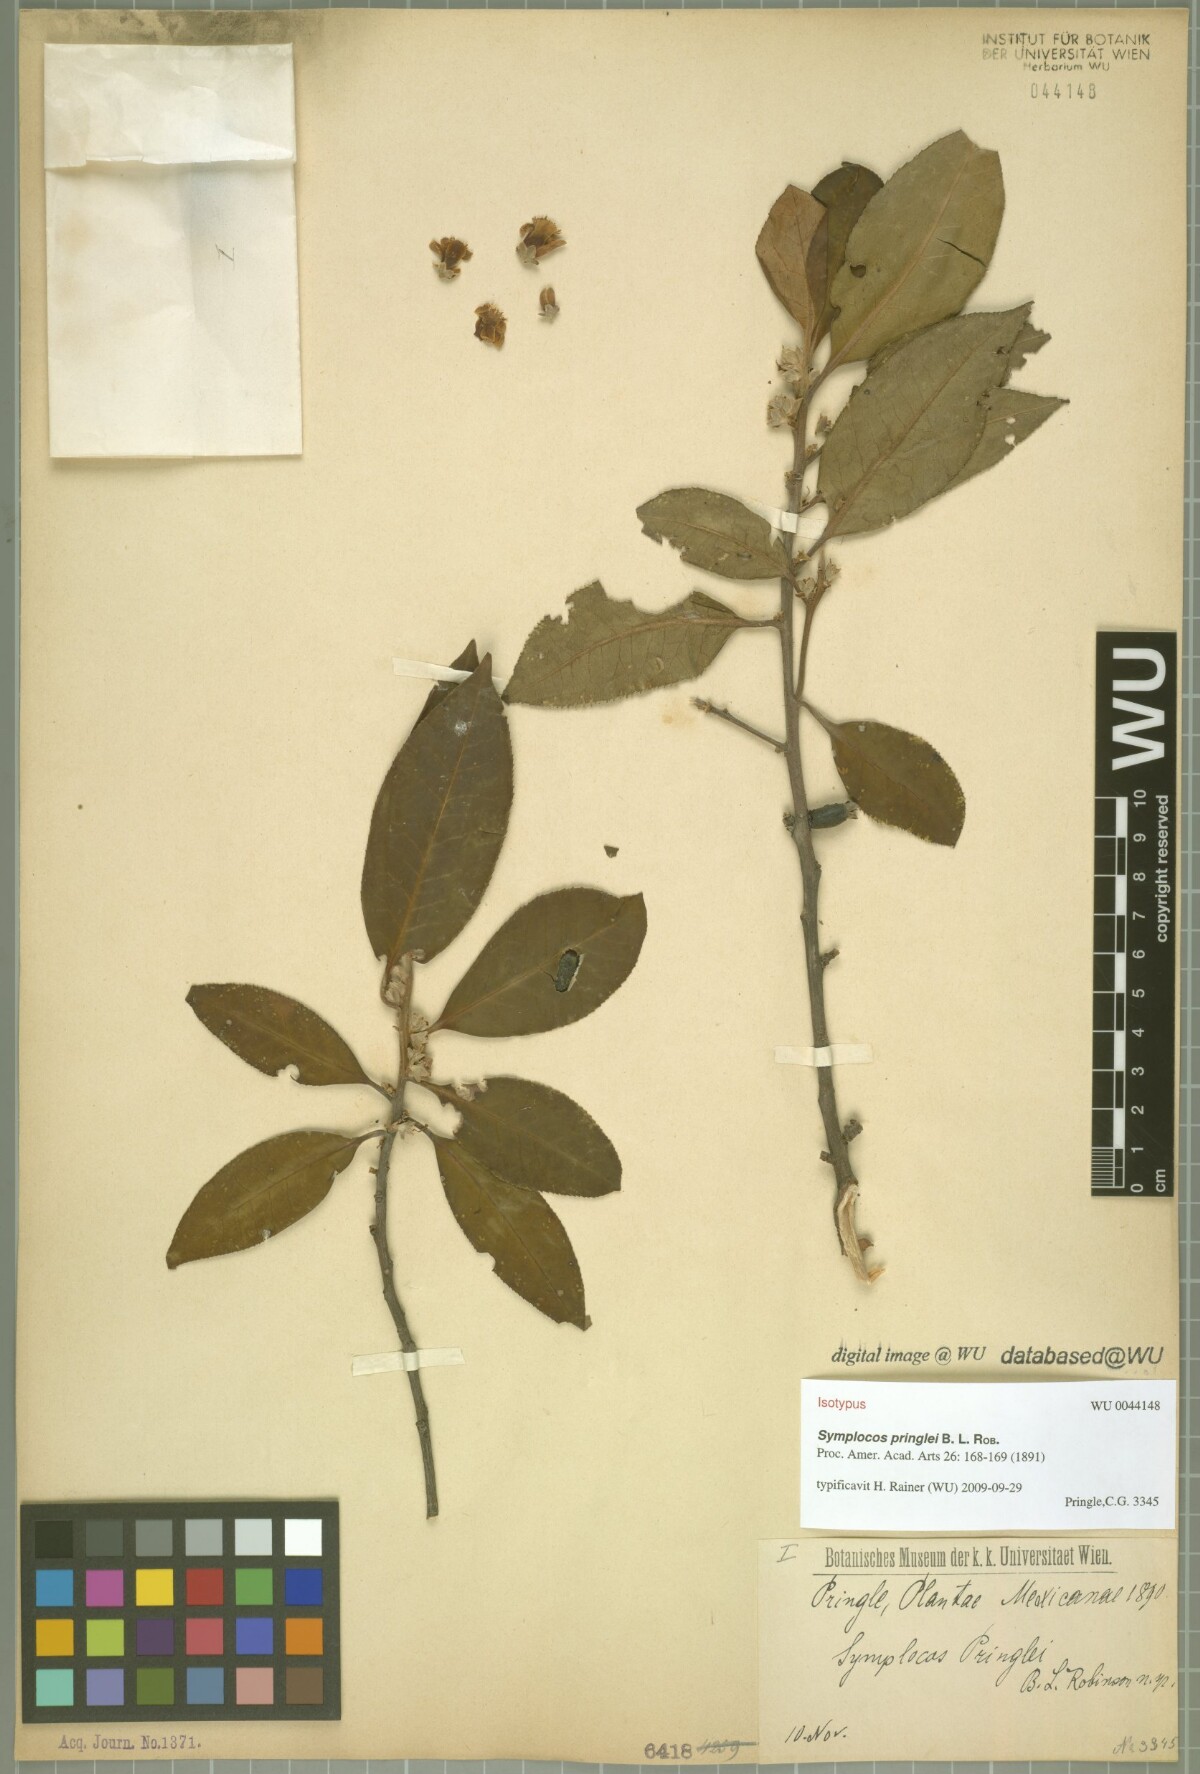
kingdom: Plantae
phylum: Tracheophyta
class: Magnoliopsida
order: Ericales
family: Symplocaceae
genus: Symplocos
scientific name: Symplocos citrea
